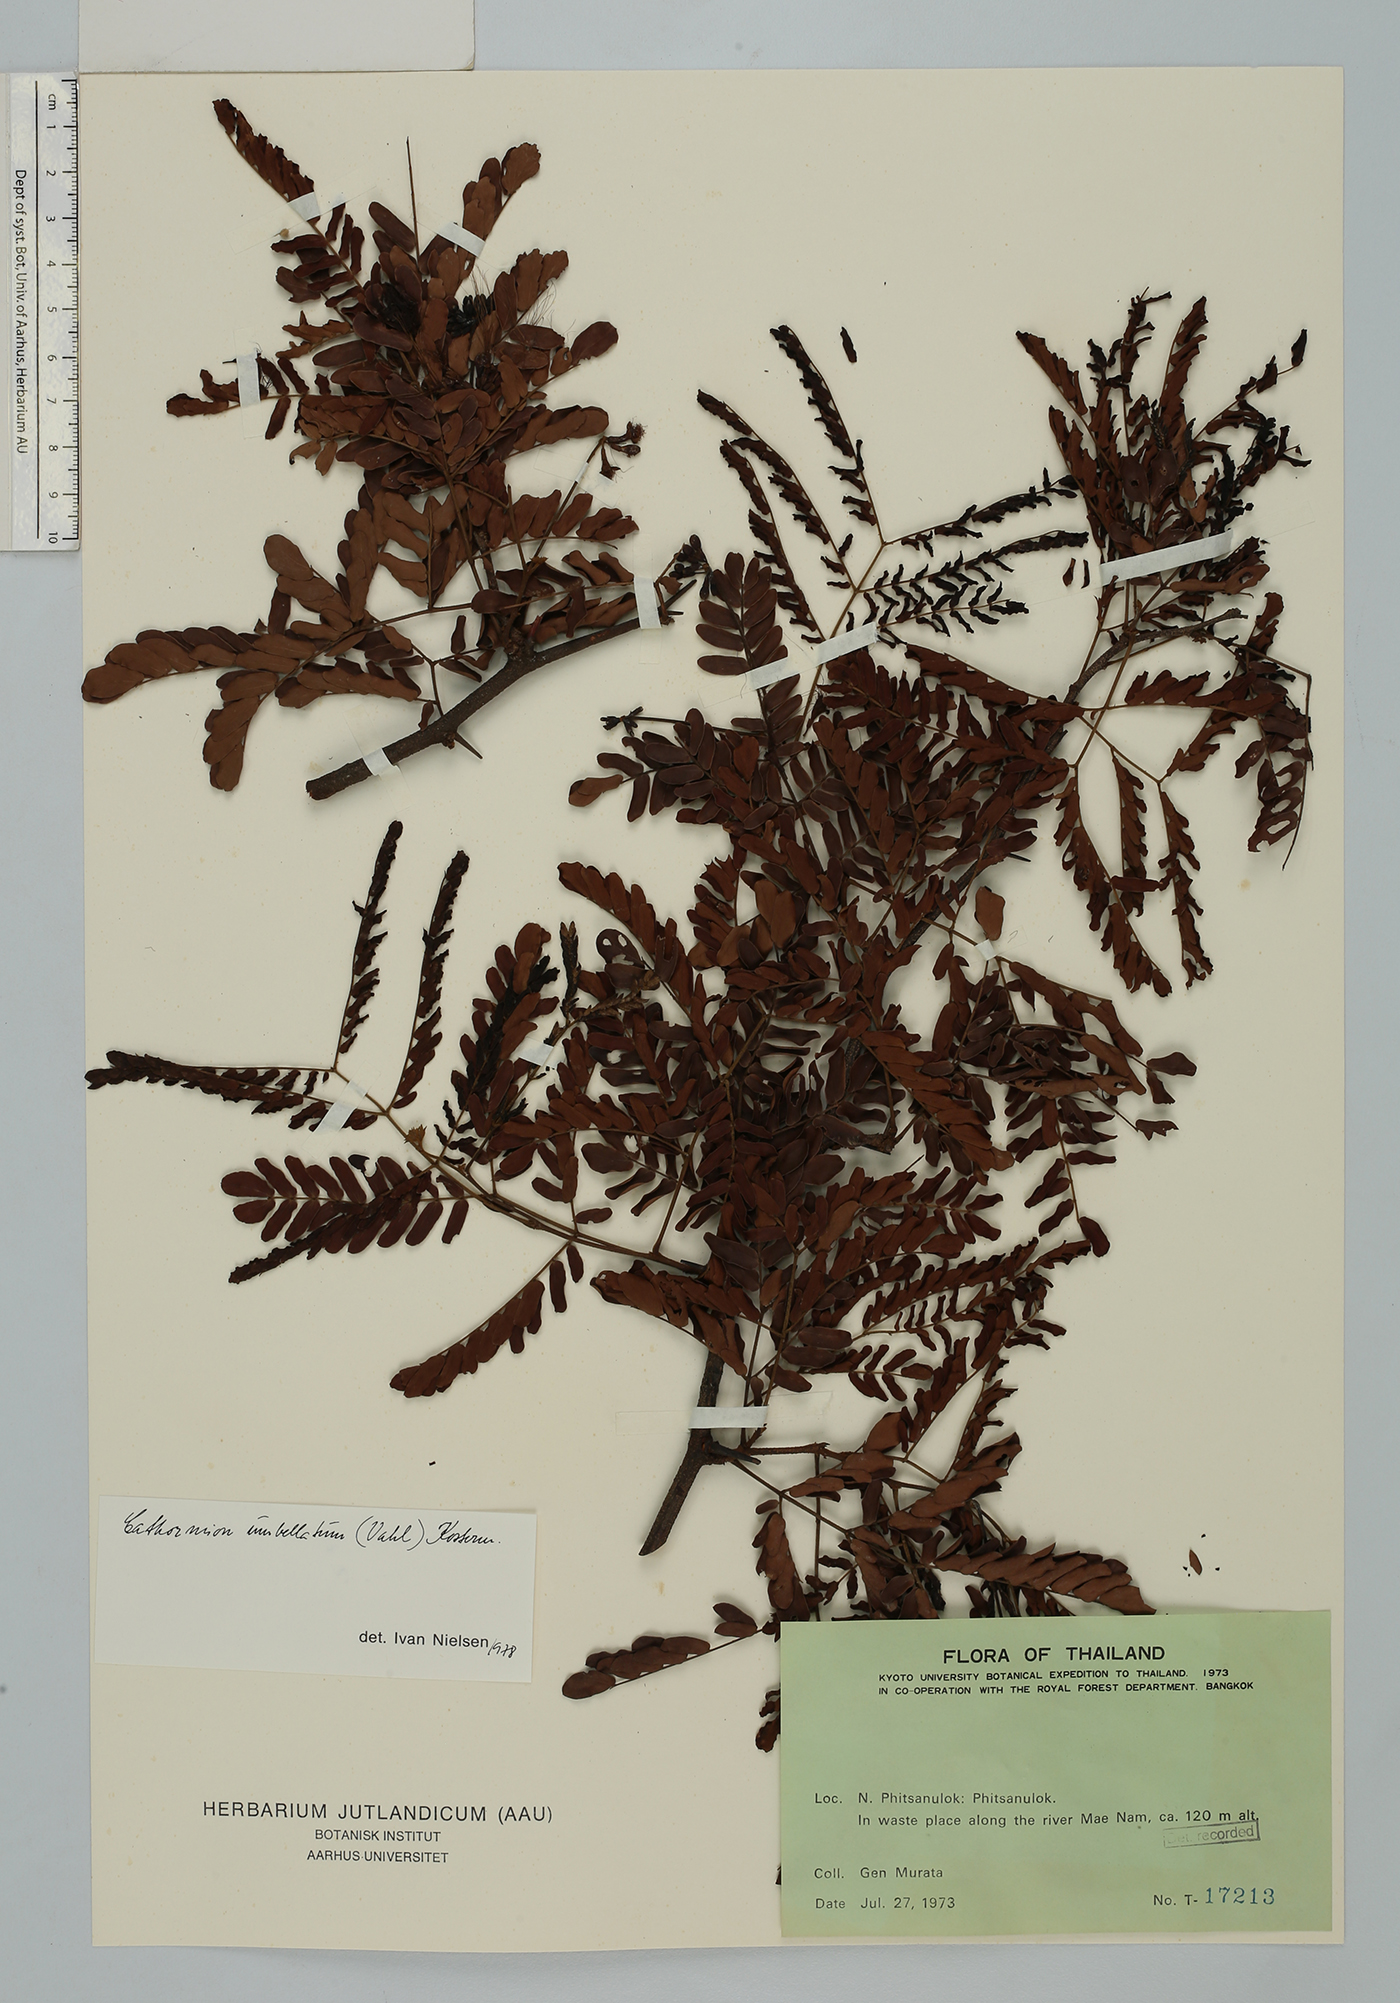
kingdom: Plantae
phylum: Tracheophyta
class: Magnoliopsida
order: Fabales
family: Fabaceae
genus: Cathormion
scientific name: Cathormion umbellatum
